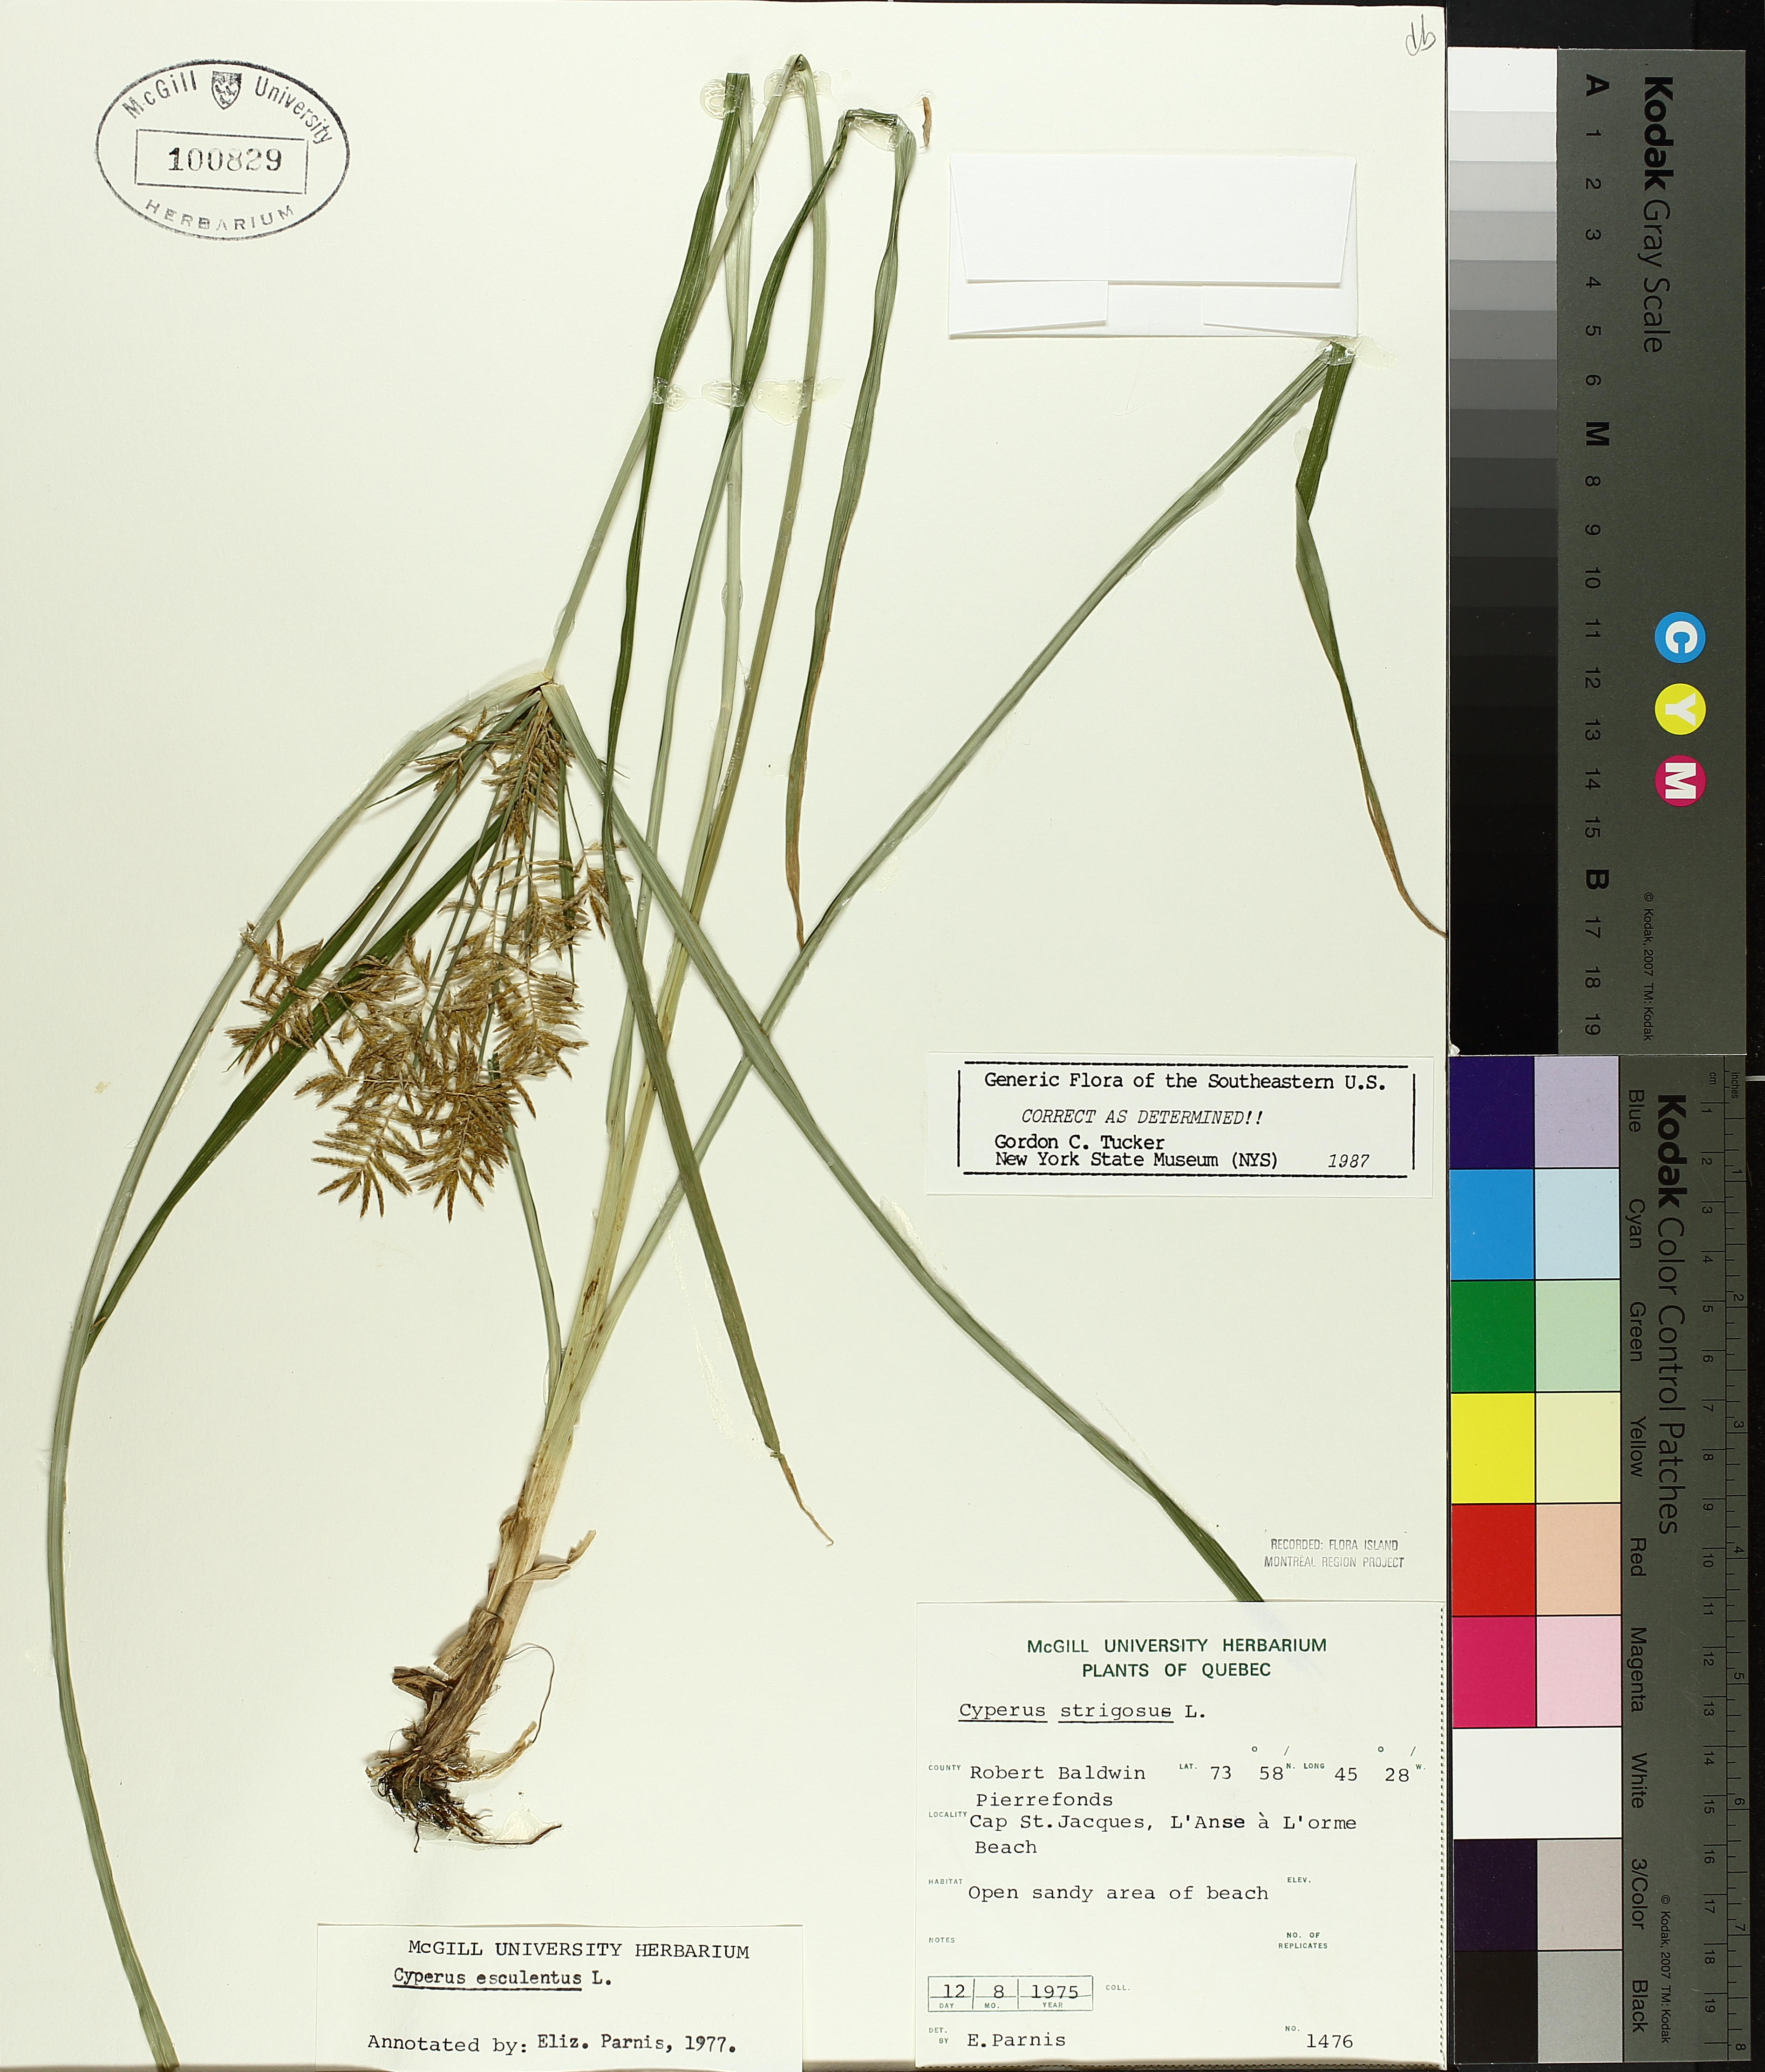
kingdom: Plantae
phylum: Tracheophyta
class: Liliopsida
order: Poales
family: Cyperaceae
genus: Cyperus
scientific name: Cyperus esculentus
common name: Yellow nutsedge
